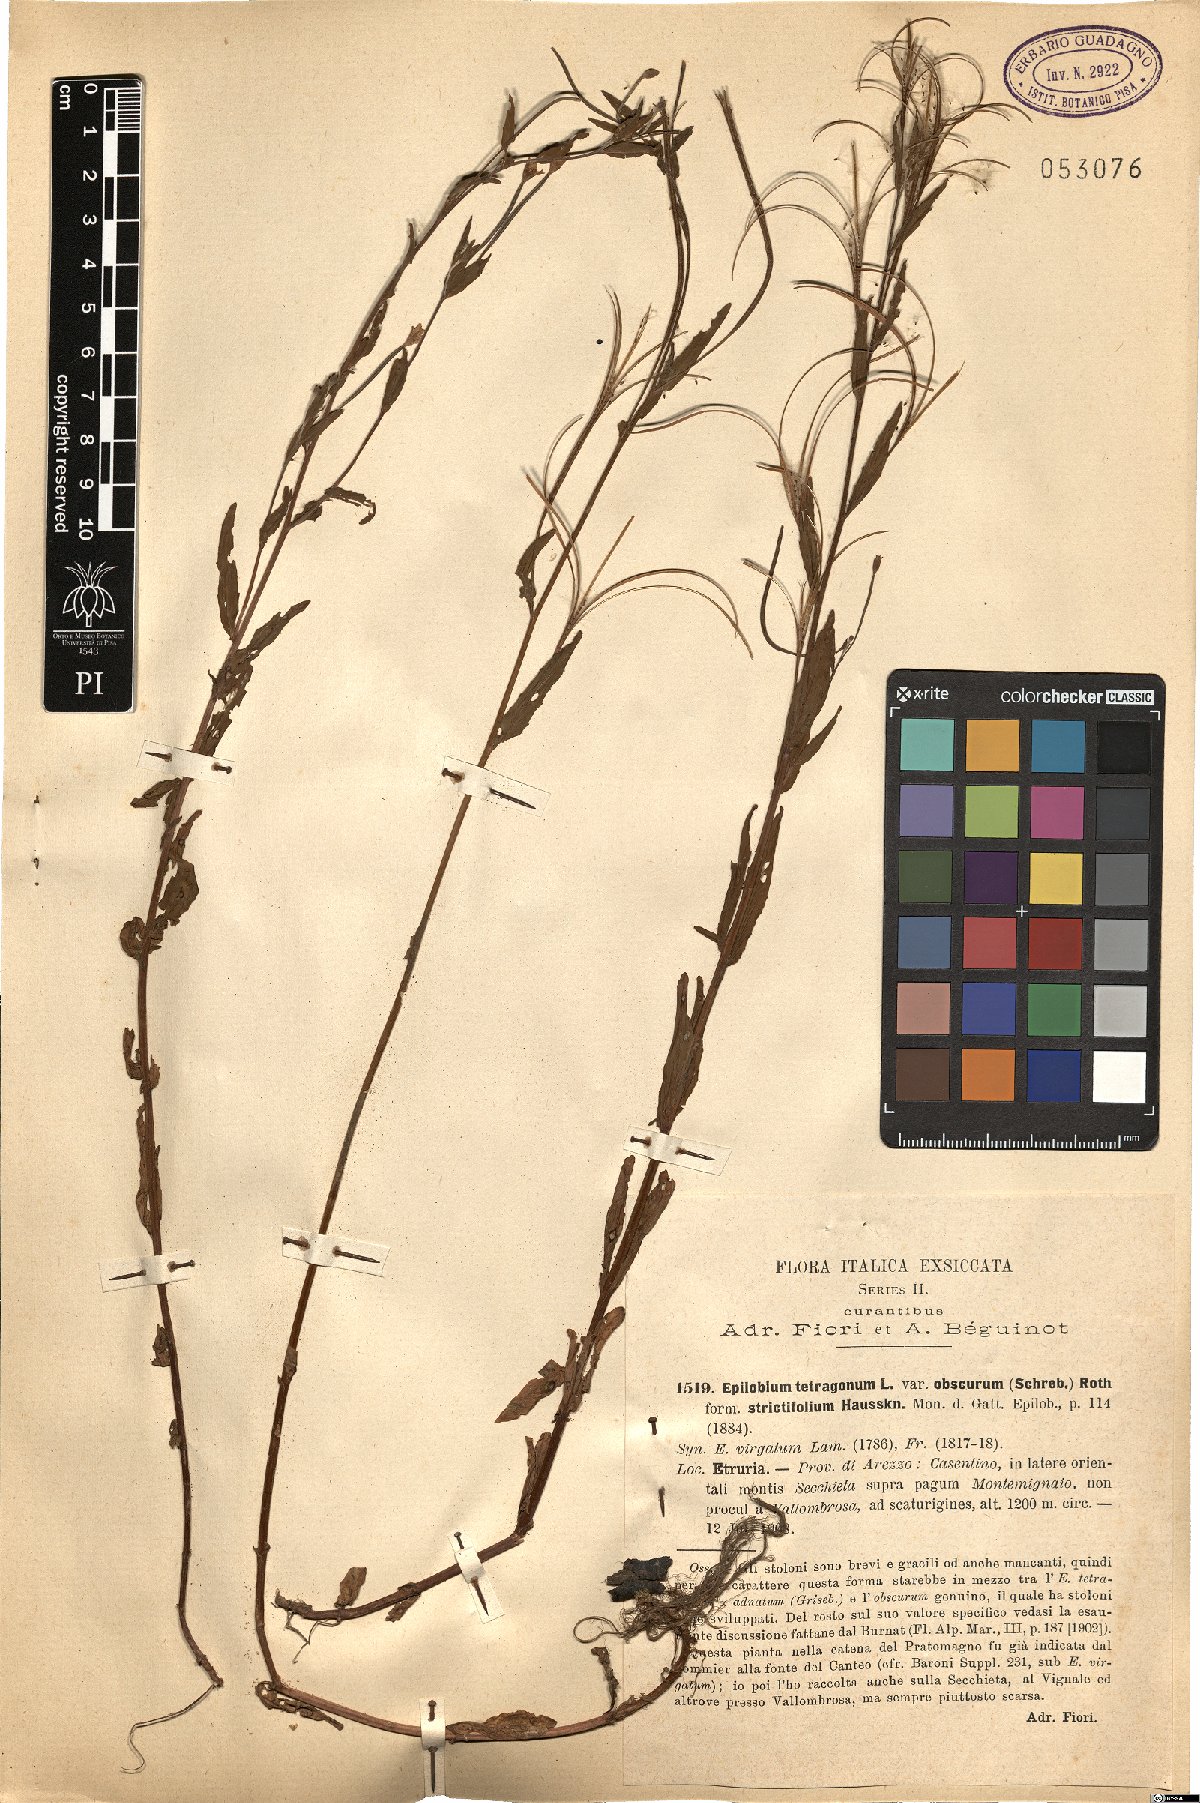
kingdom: Plantae
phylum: Tracheophyta
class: Magnoliopsida
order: Myrtales
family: Onagraceae
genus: Epilobium
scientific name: Epilobium tetragonum
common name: Square-stemmed willowherb
